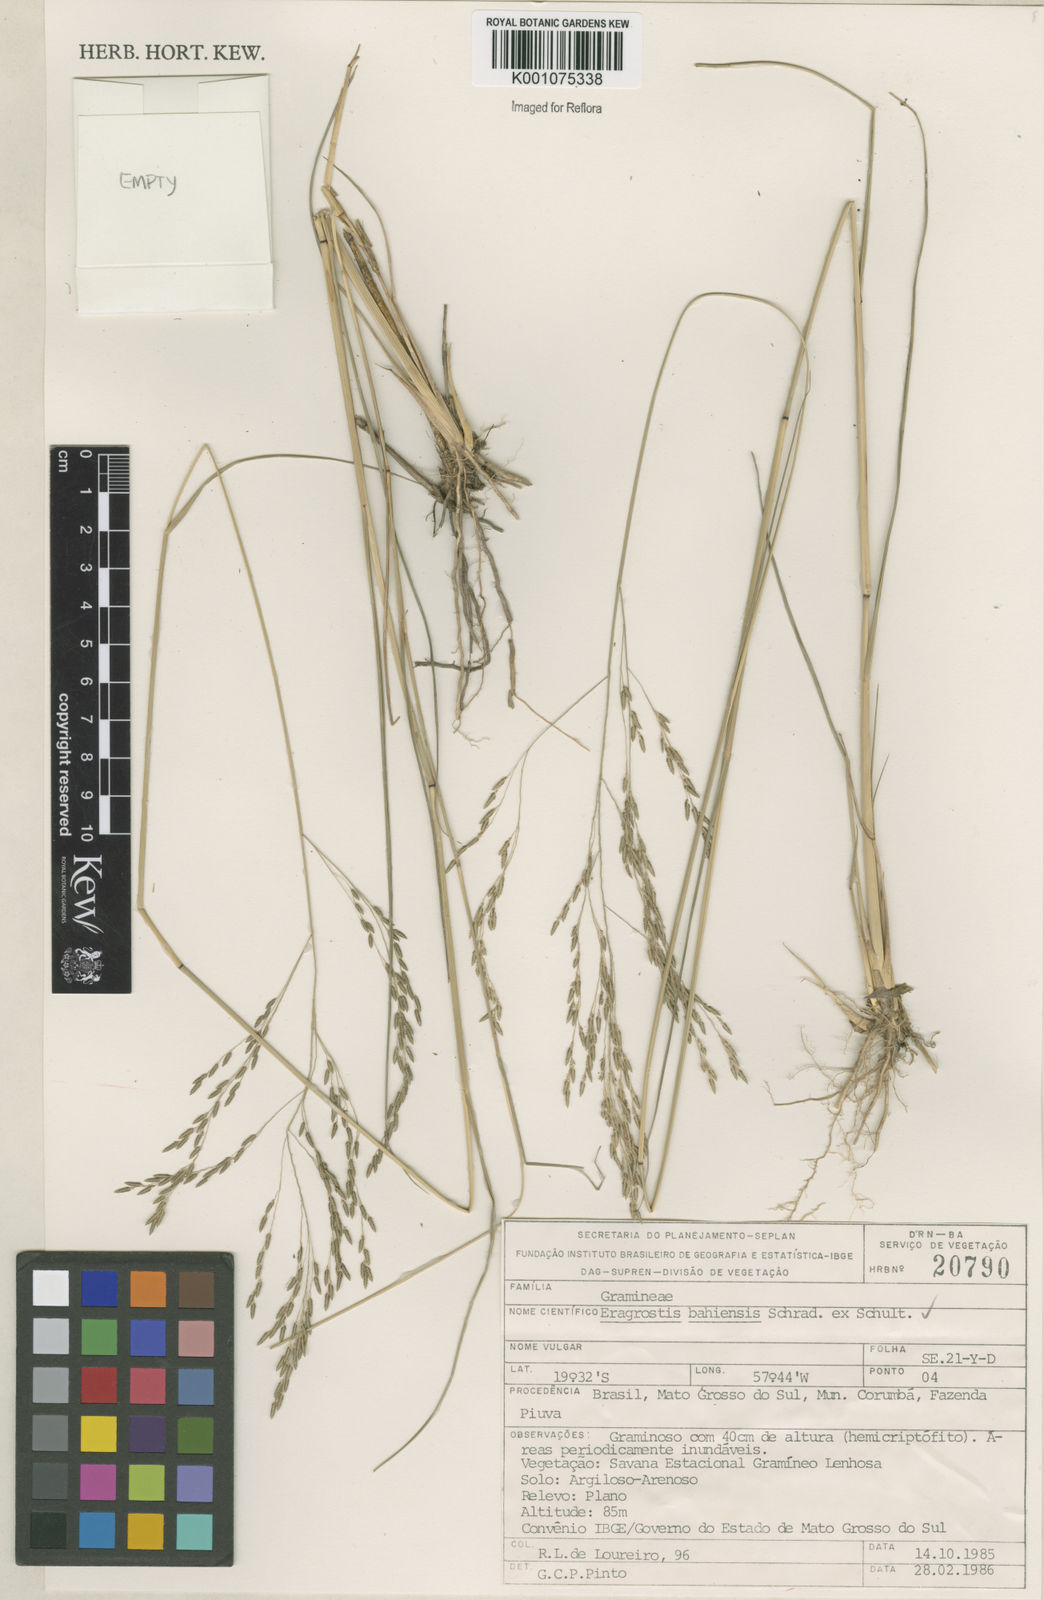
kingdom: Plantae
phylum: Tracheophyta
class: Liliopsida
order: Poales
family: Poaceae
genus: Eragrostis
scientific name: Eragrostis bahiensis
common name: Bahia lovegrass
